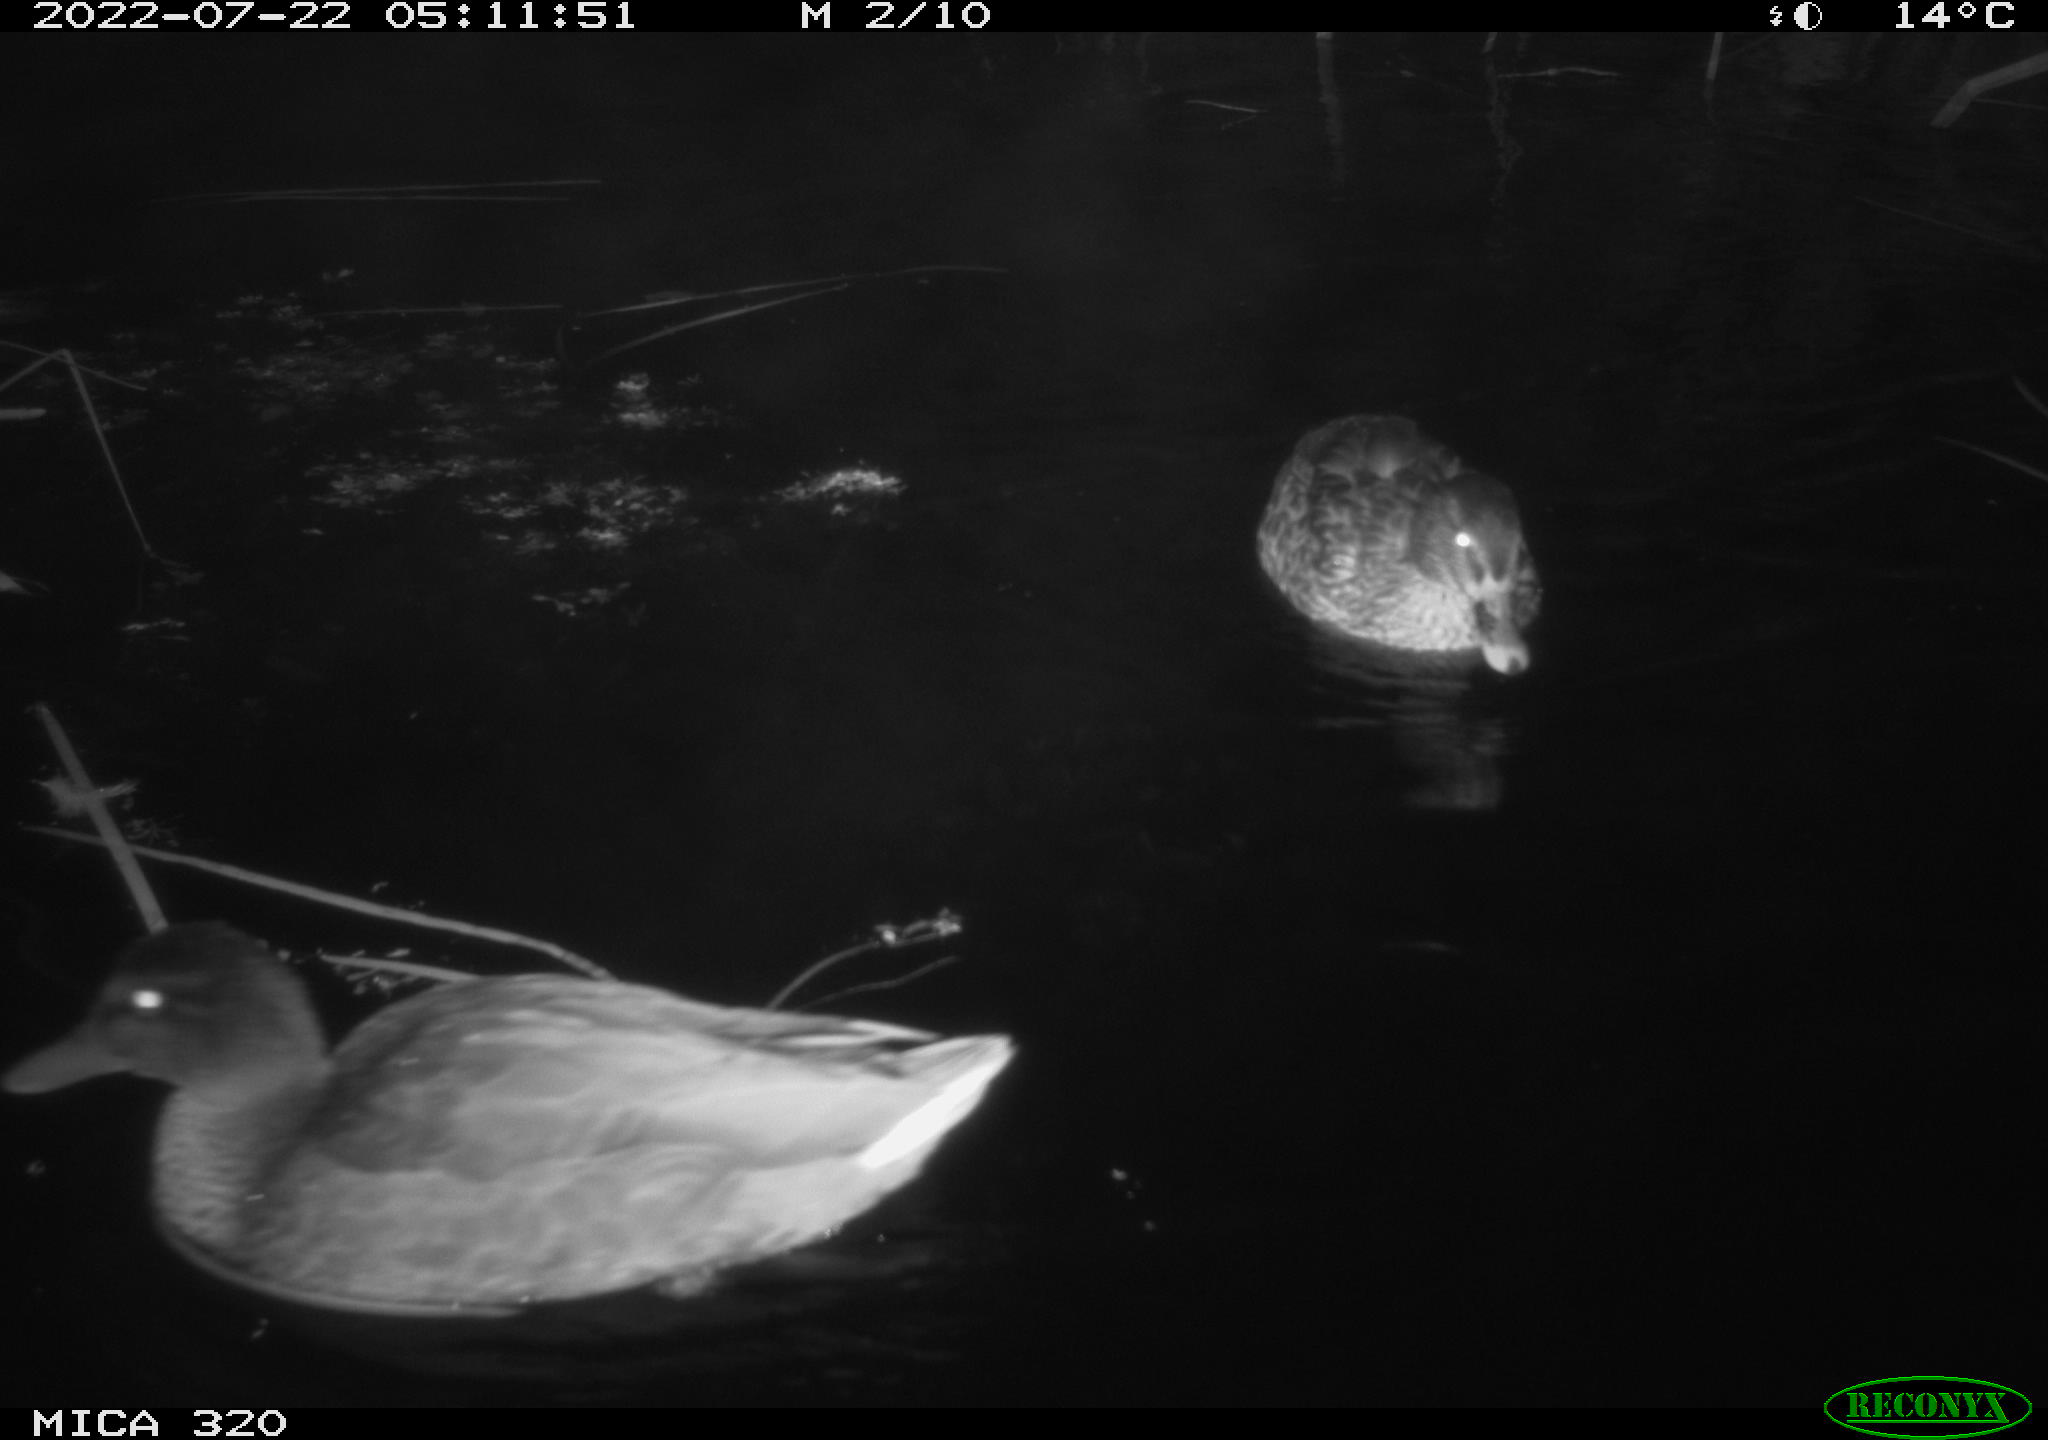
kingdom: Animalia
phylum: Chordata
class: Aves
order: Anseriformes
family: Anatidae
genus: Mareca
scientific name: Mareca strepera
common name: Gadwall
